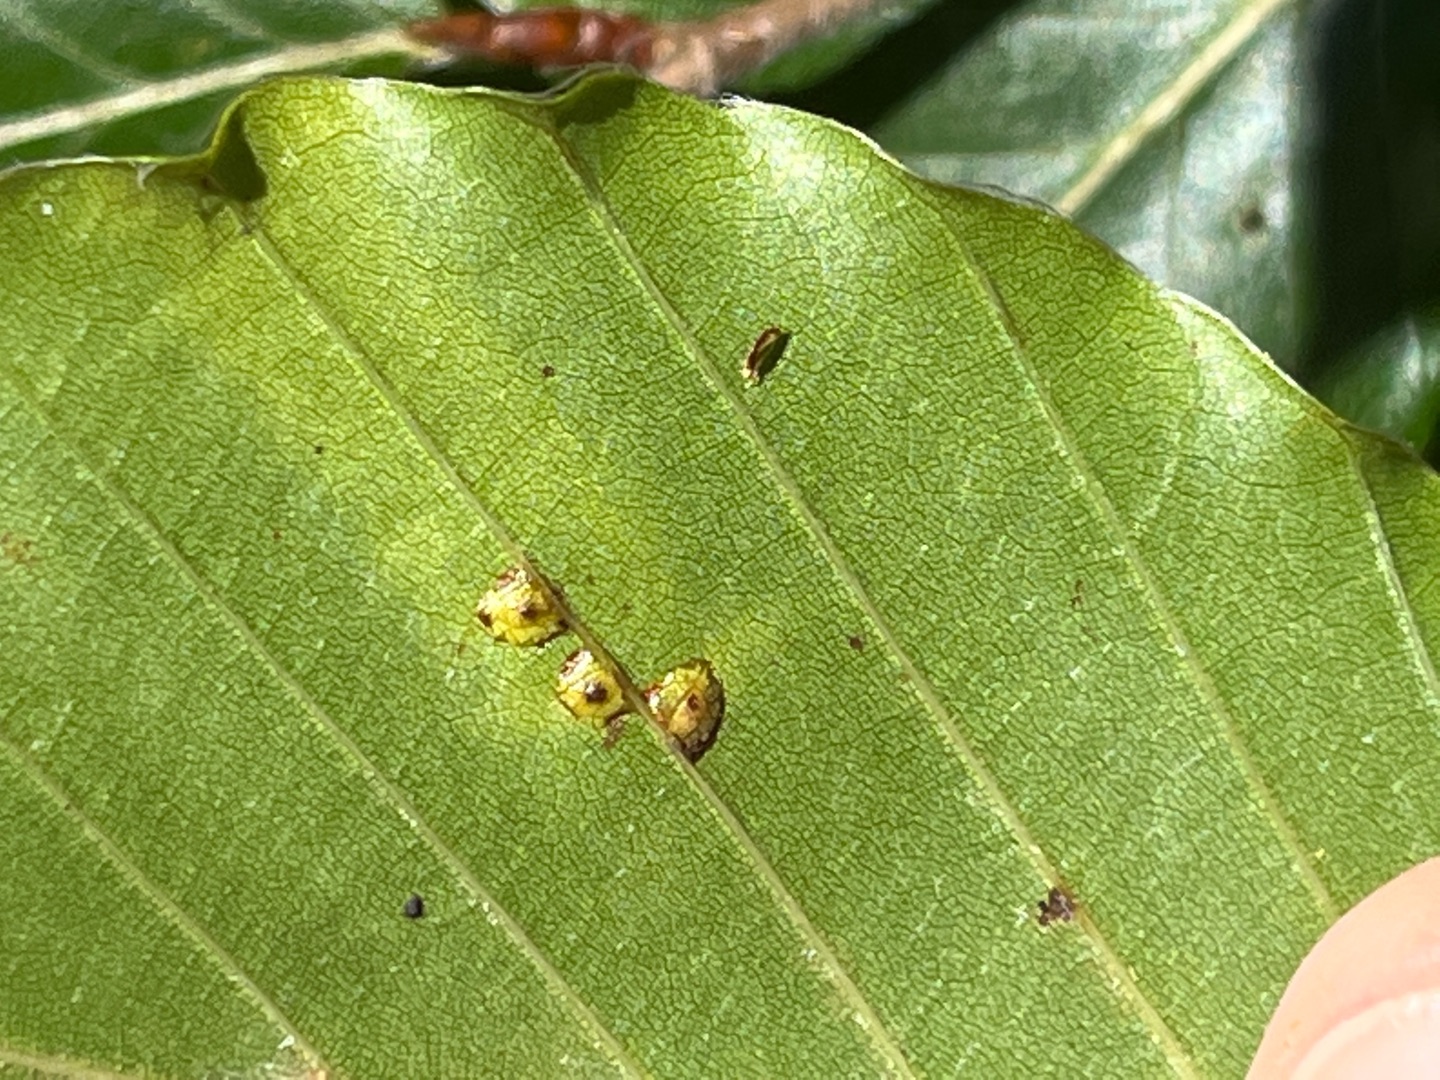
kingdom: Animalia
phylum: Arthropoda
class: Insecta
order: Diptera
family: Cecidomyiidae
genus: Hartigiola
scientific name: Hartigiola annulipes
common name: Skovtroldegalmyg
